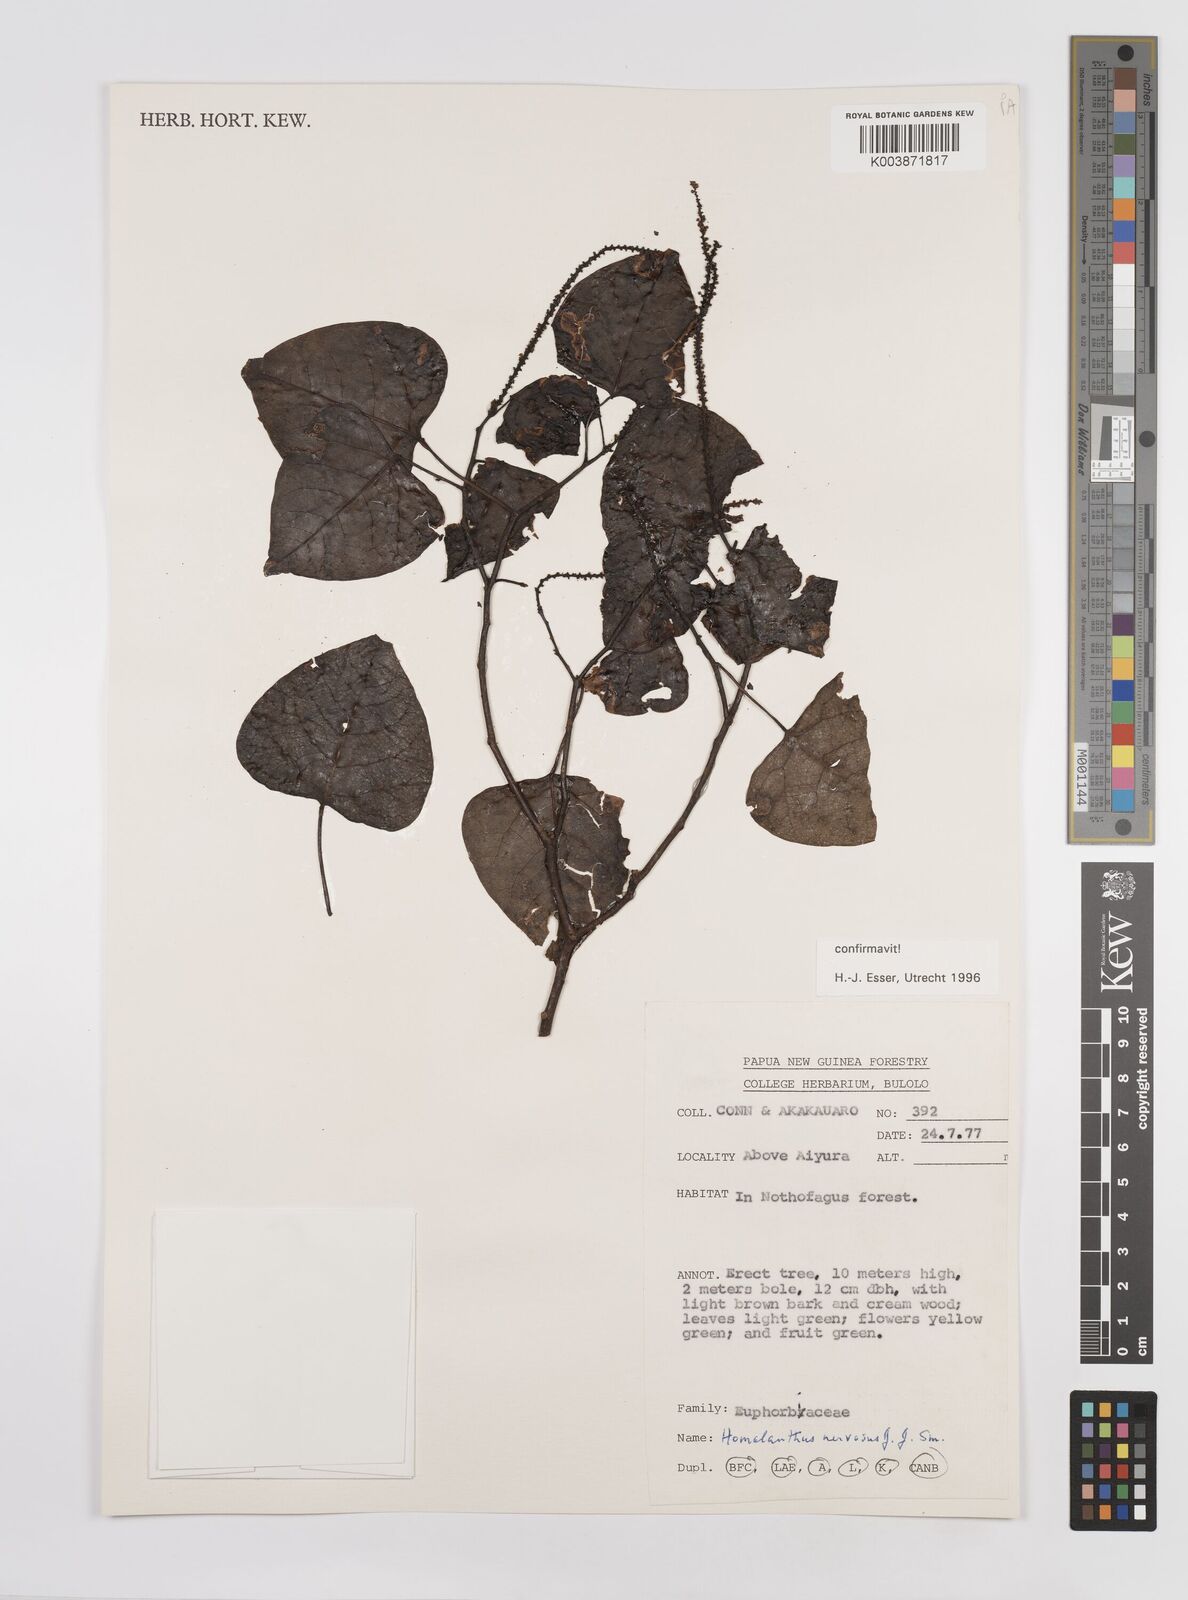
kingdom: Plantae
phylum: Tracheophyta
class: Magnoliopsida
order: Malpighiales
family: Euphorbiaceae
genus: Homalanthus
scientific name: Homalanthus nervosus
